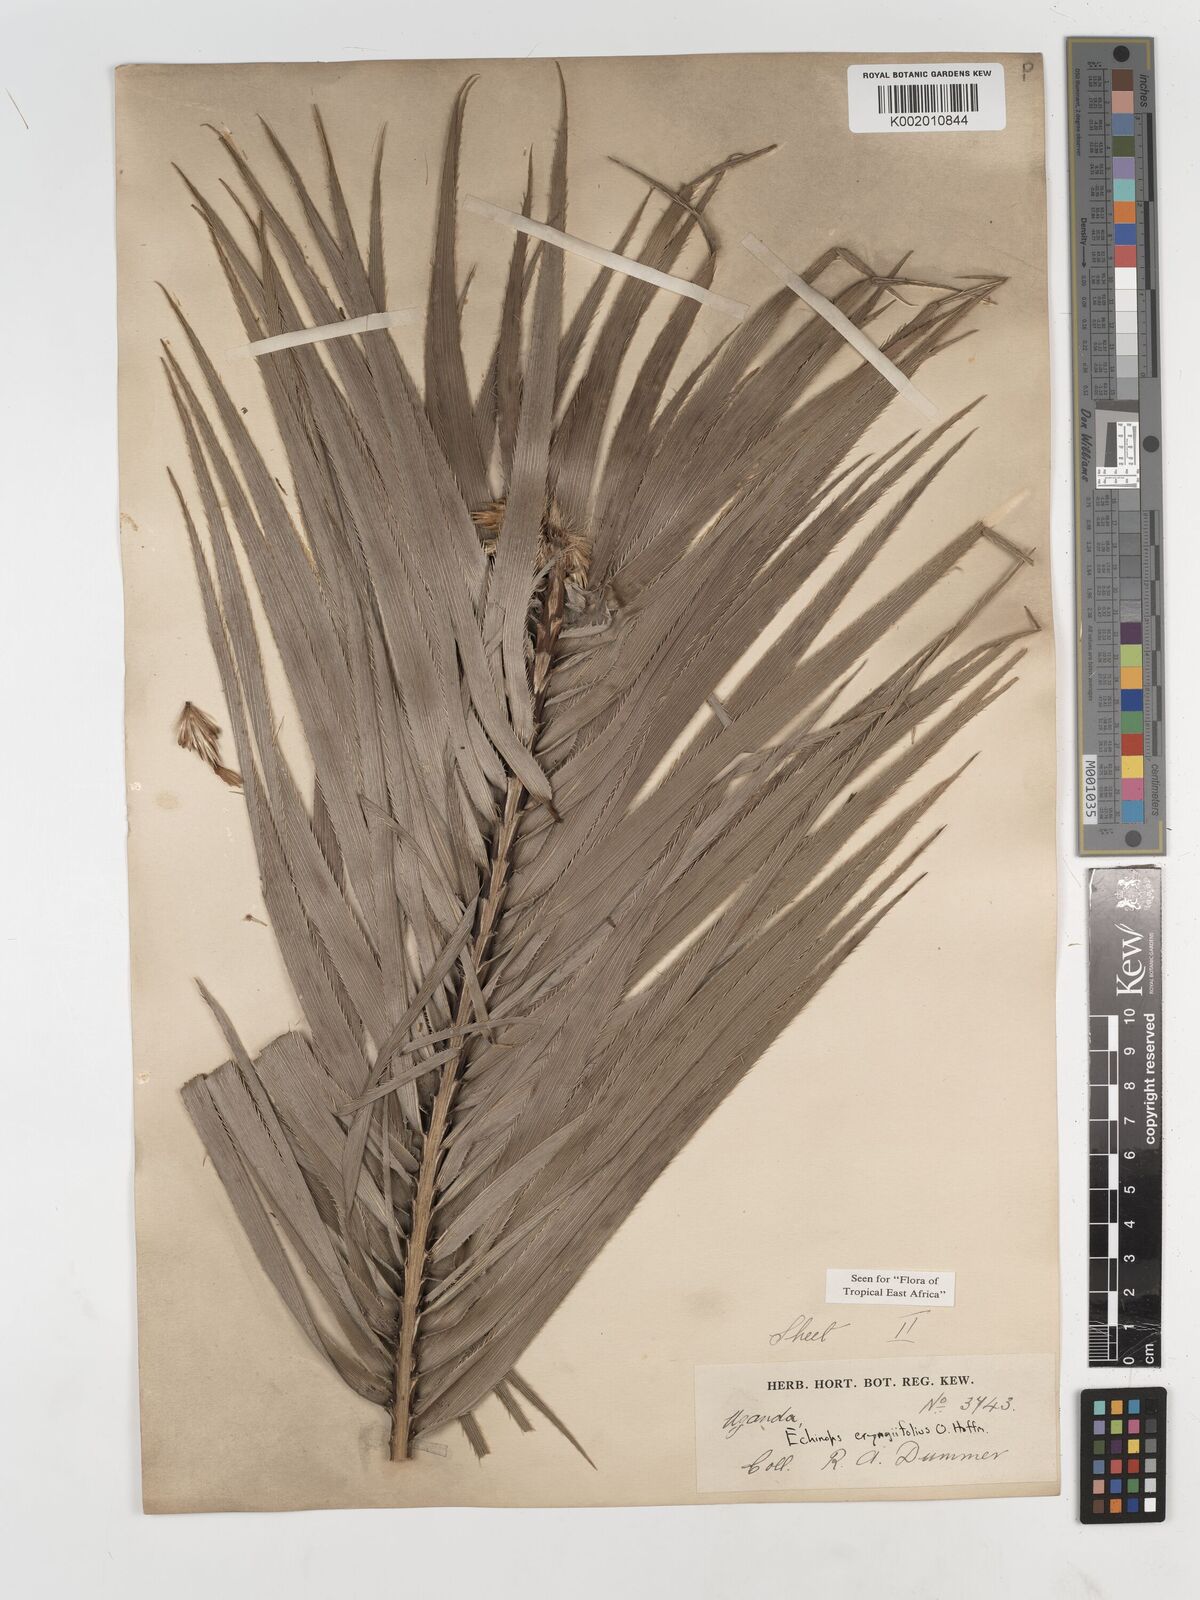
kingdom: Plantae
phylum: Tracheophyta
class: Magnoliopsida
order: Asterales
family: Asteraceae
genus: Echinops
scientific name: Echinops eryngiifolius
